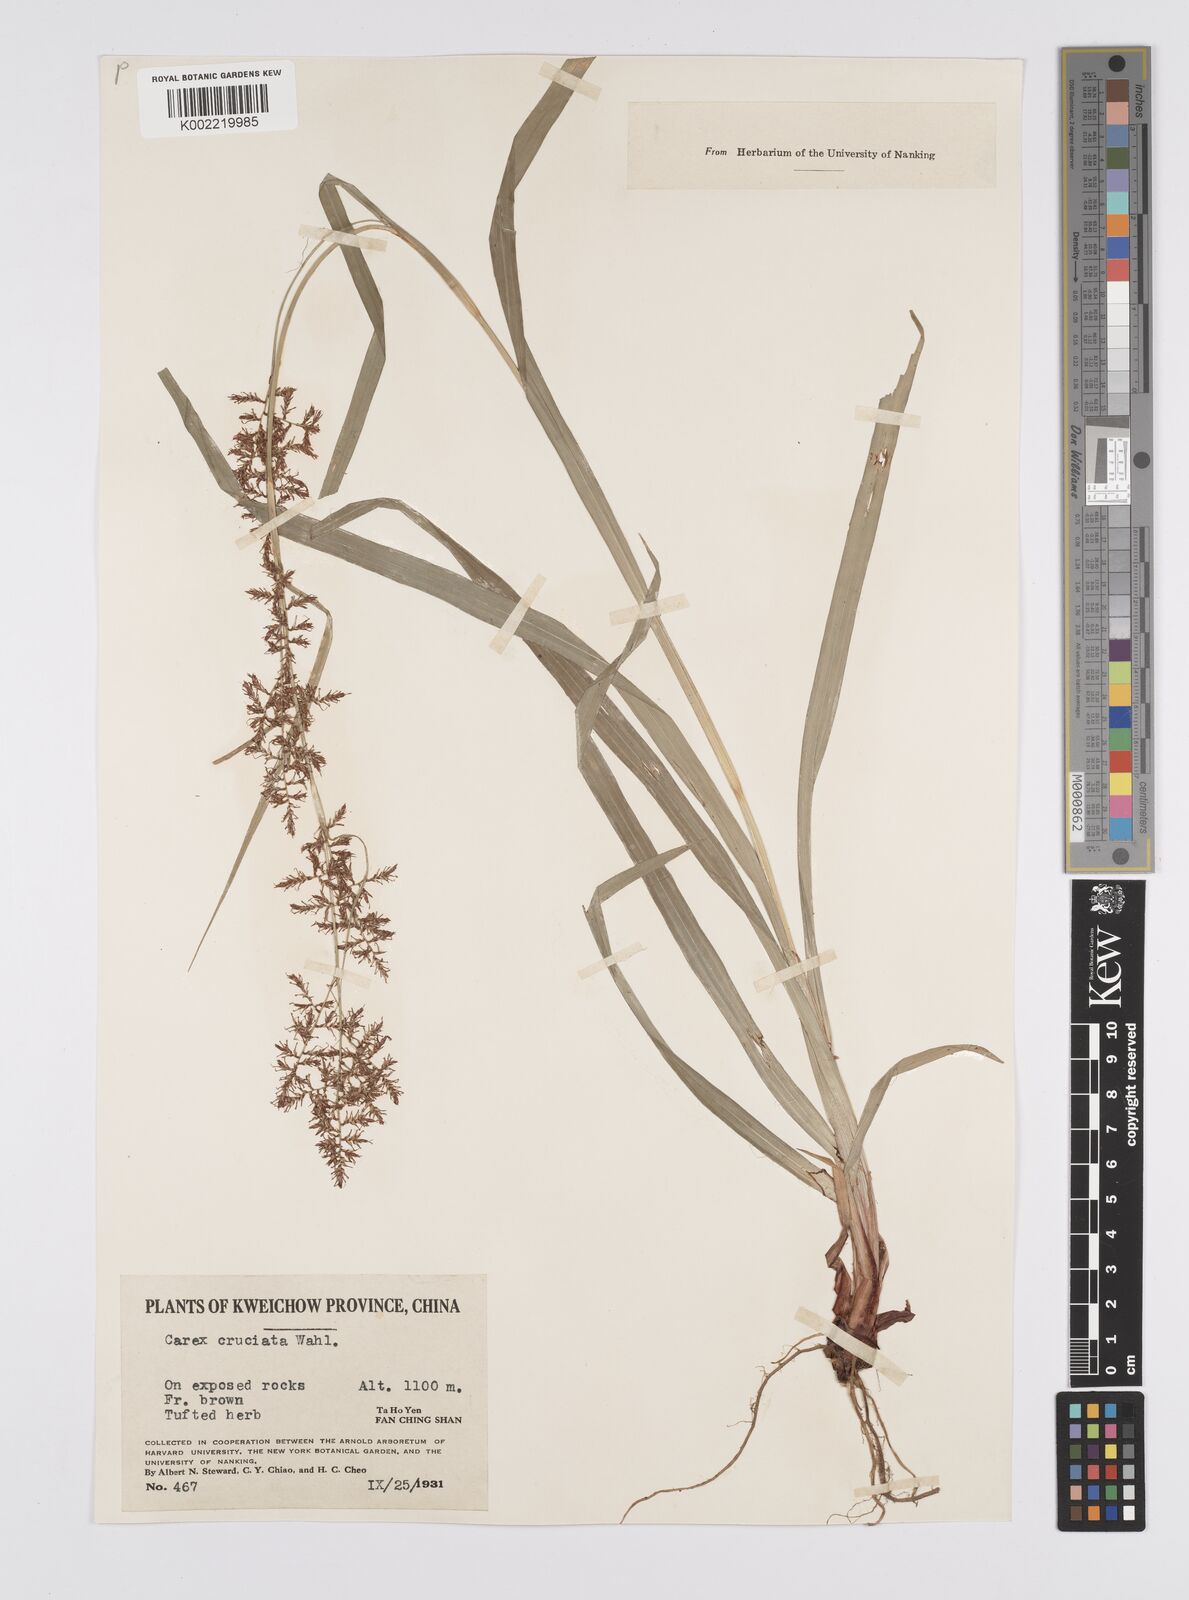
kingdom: Plantae
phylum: Tracheophyta
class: Liliopsida
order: Poales
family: Cyperaceae
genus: Carex
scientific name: Carex filicina
